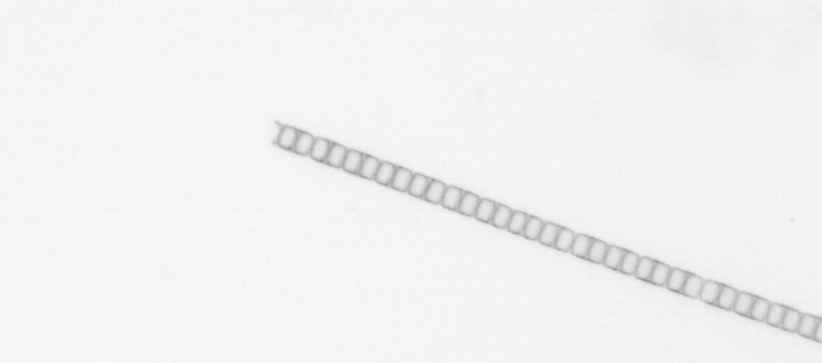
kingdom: Chromista
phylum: Ochrophyta
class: Bacillariophyceae
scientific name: Bacillariophyceae
